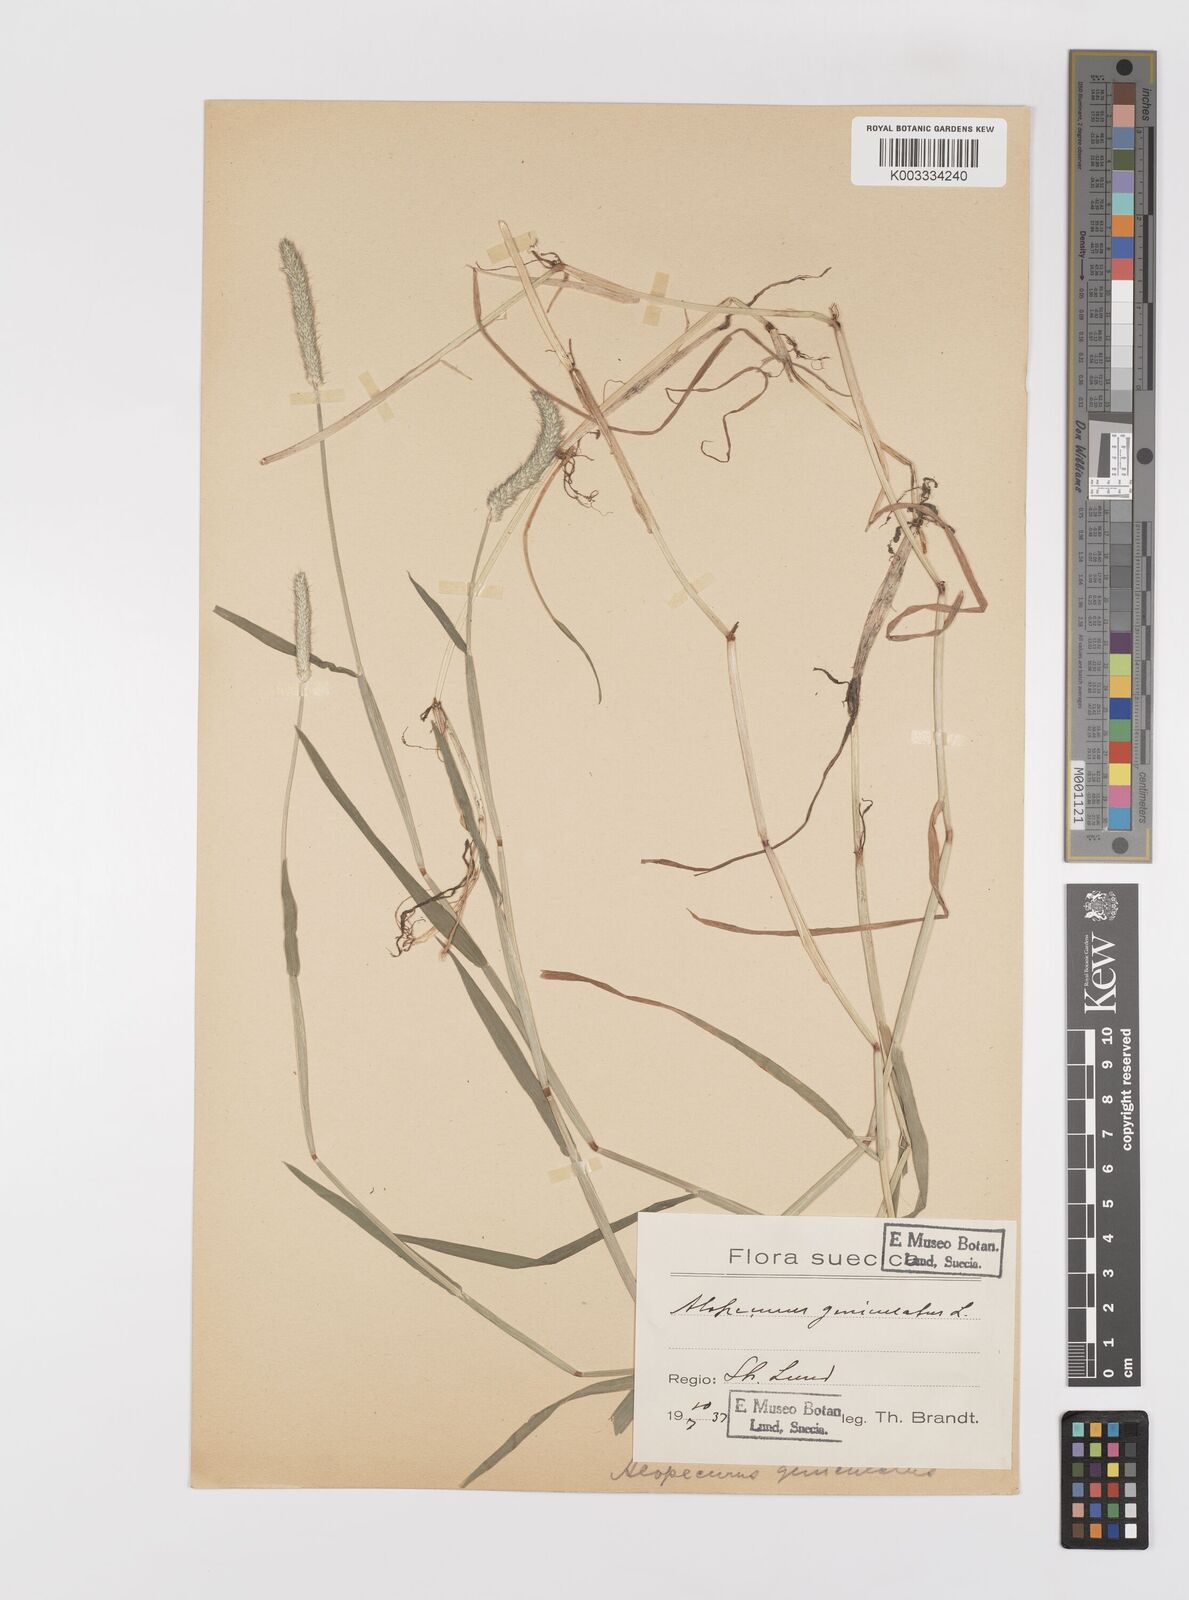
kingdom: Plantae
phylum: Tracheophyta
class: Liliopsida
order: Poales
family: Poaceae
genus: Alopecurus
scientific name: Alopecurus geniculatus
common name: Water foxtail
